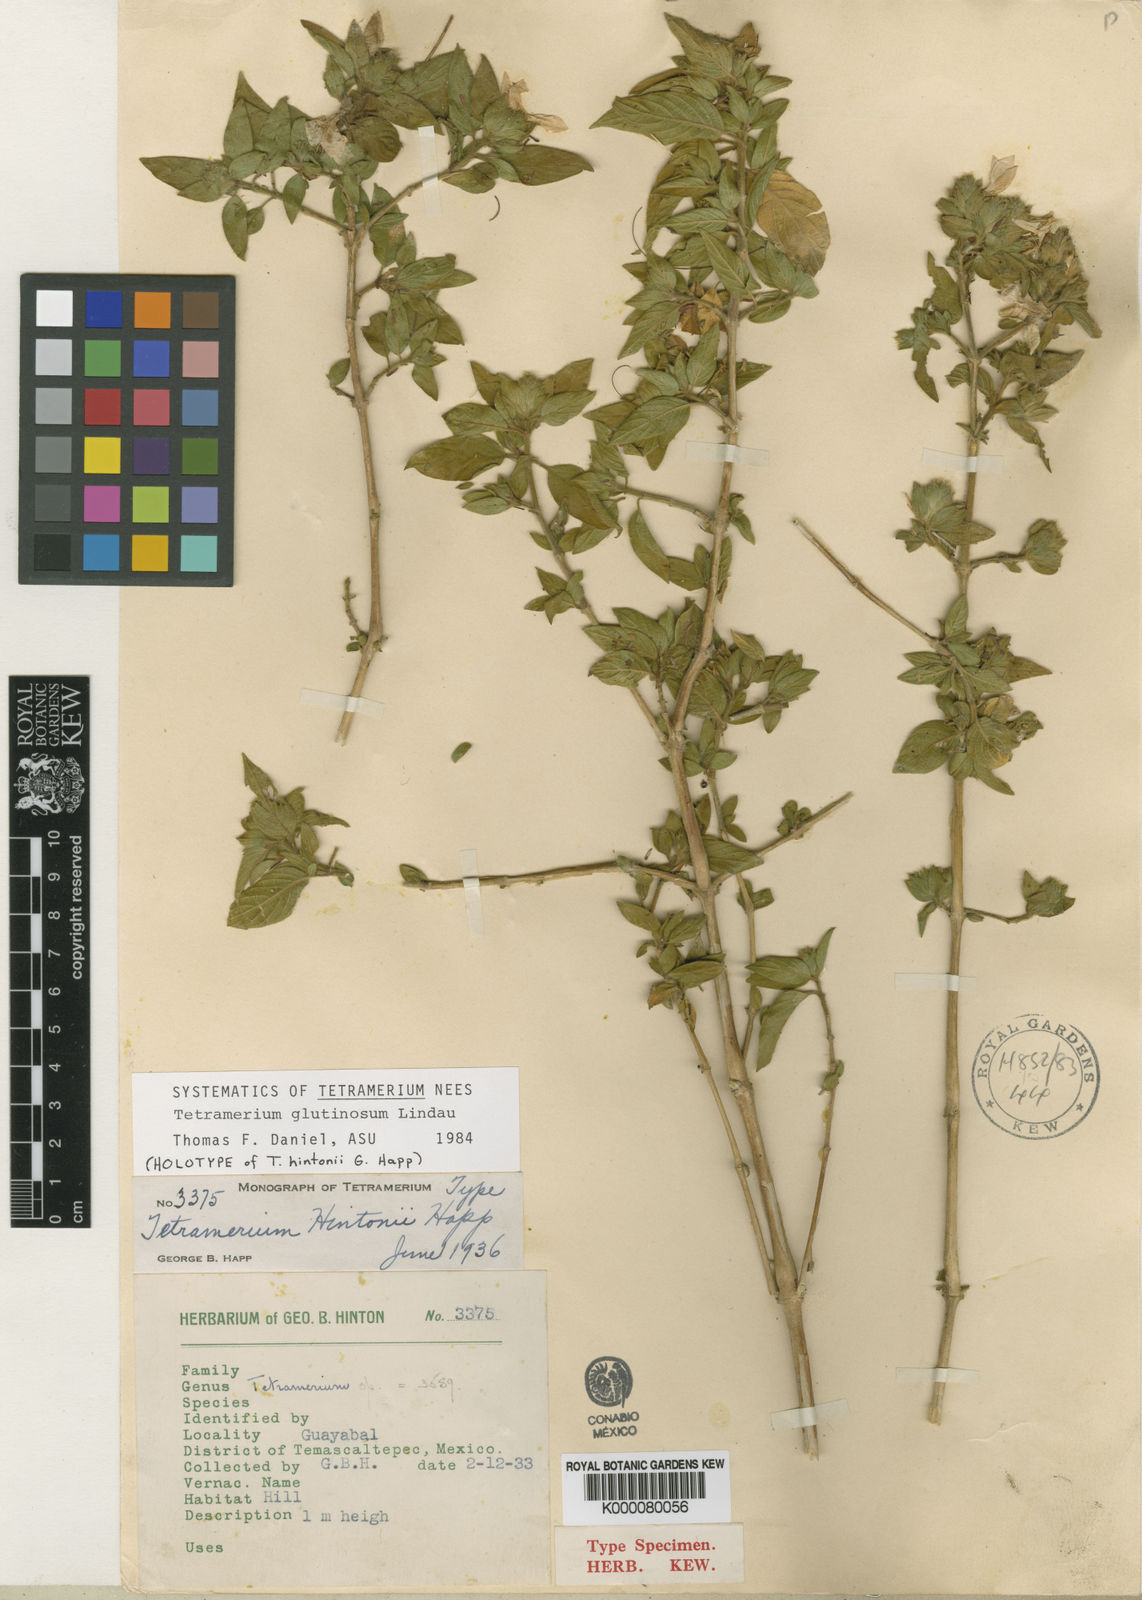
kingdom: Plantae
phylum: Tracheophyta
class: Magnoliopsida
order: Lamiales
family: Acanthaceae
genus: Tetramerium
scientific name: Tetramerium
